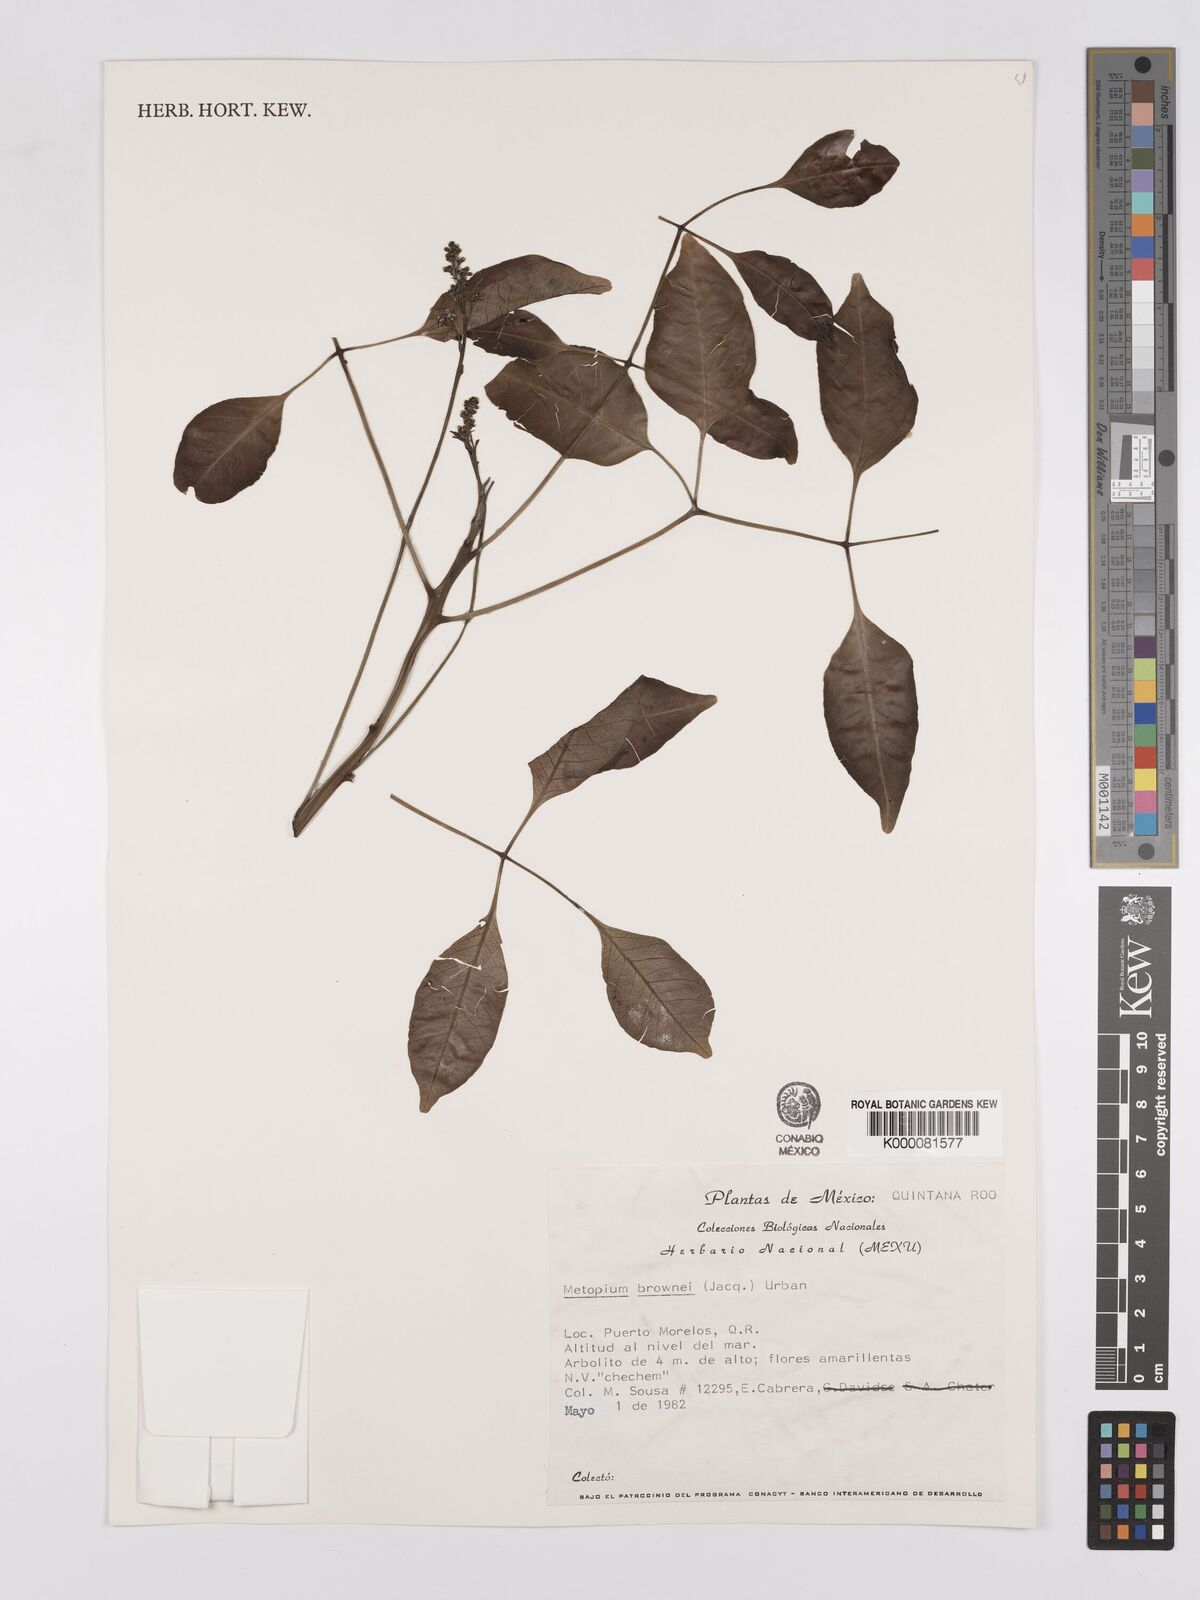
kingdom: Plantae
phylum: Tracheophyta
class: Magnoliopsida
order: Sapindales
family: Anacardiaceae
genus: Metopium
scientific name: Metopium brownei
